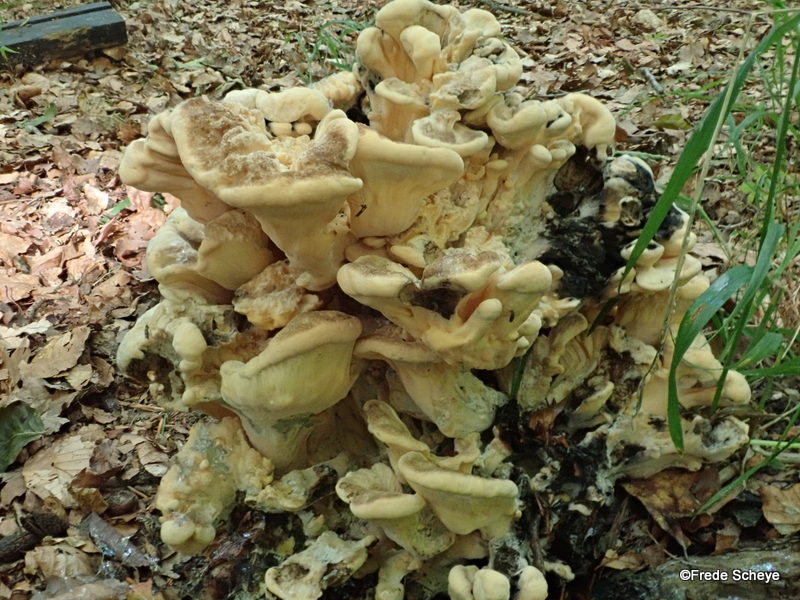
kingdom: Fungi
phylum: Basidiomycota
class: Agaricomycetes
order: Polyporales
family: Meripilaceae
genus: Meripilus
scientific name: Meripilus giganteus
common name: kæmpeporesvamp
